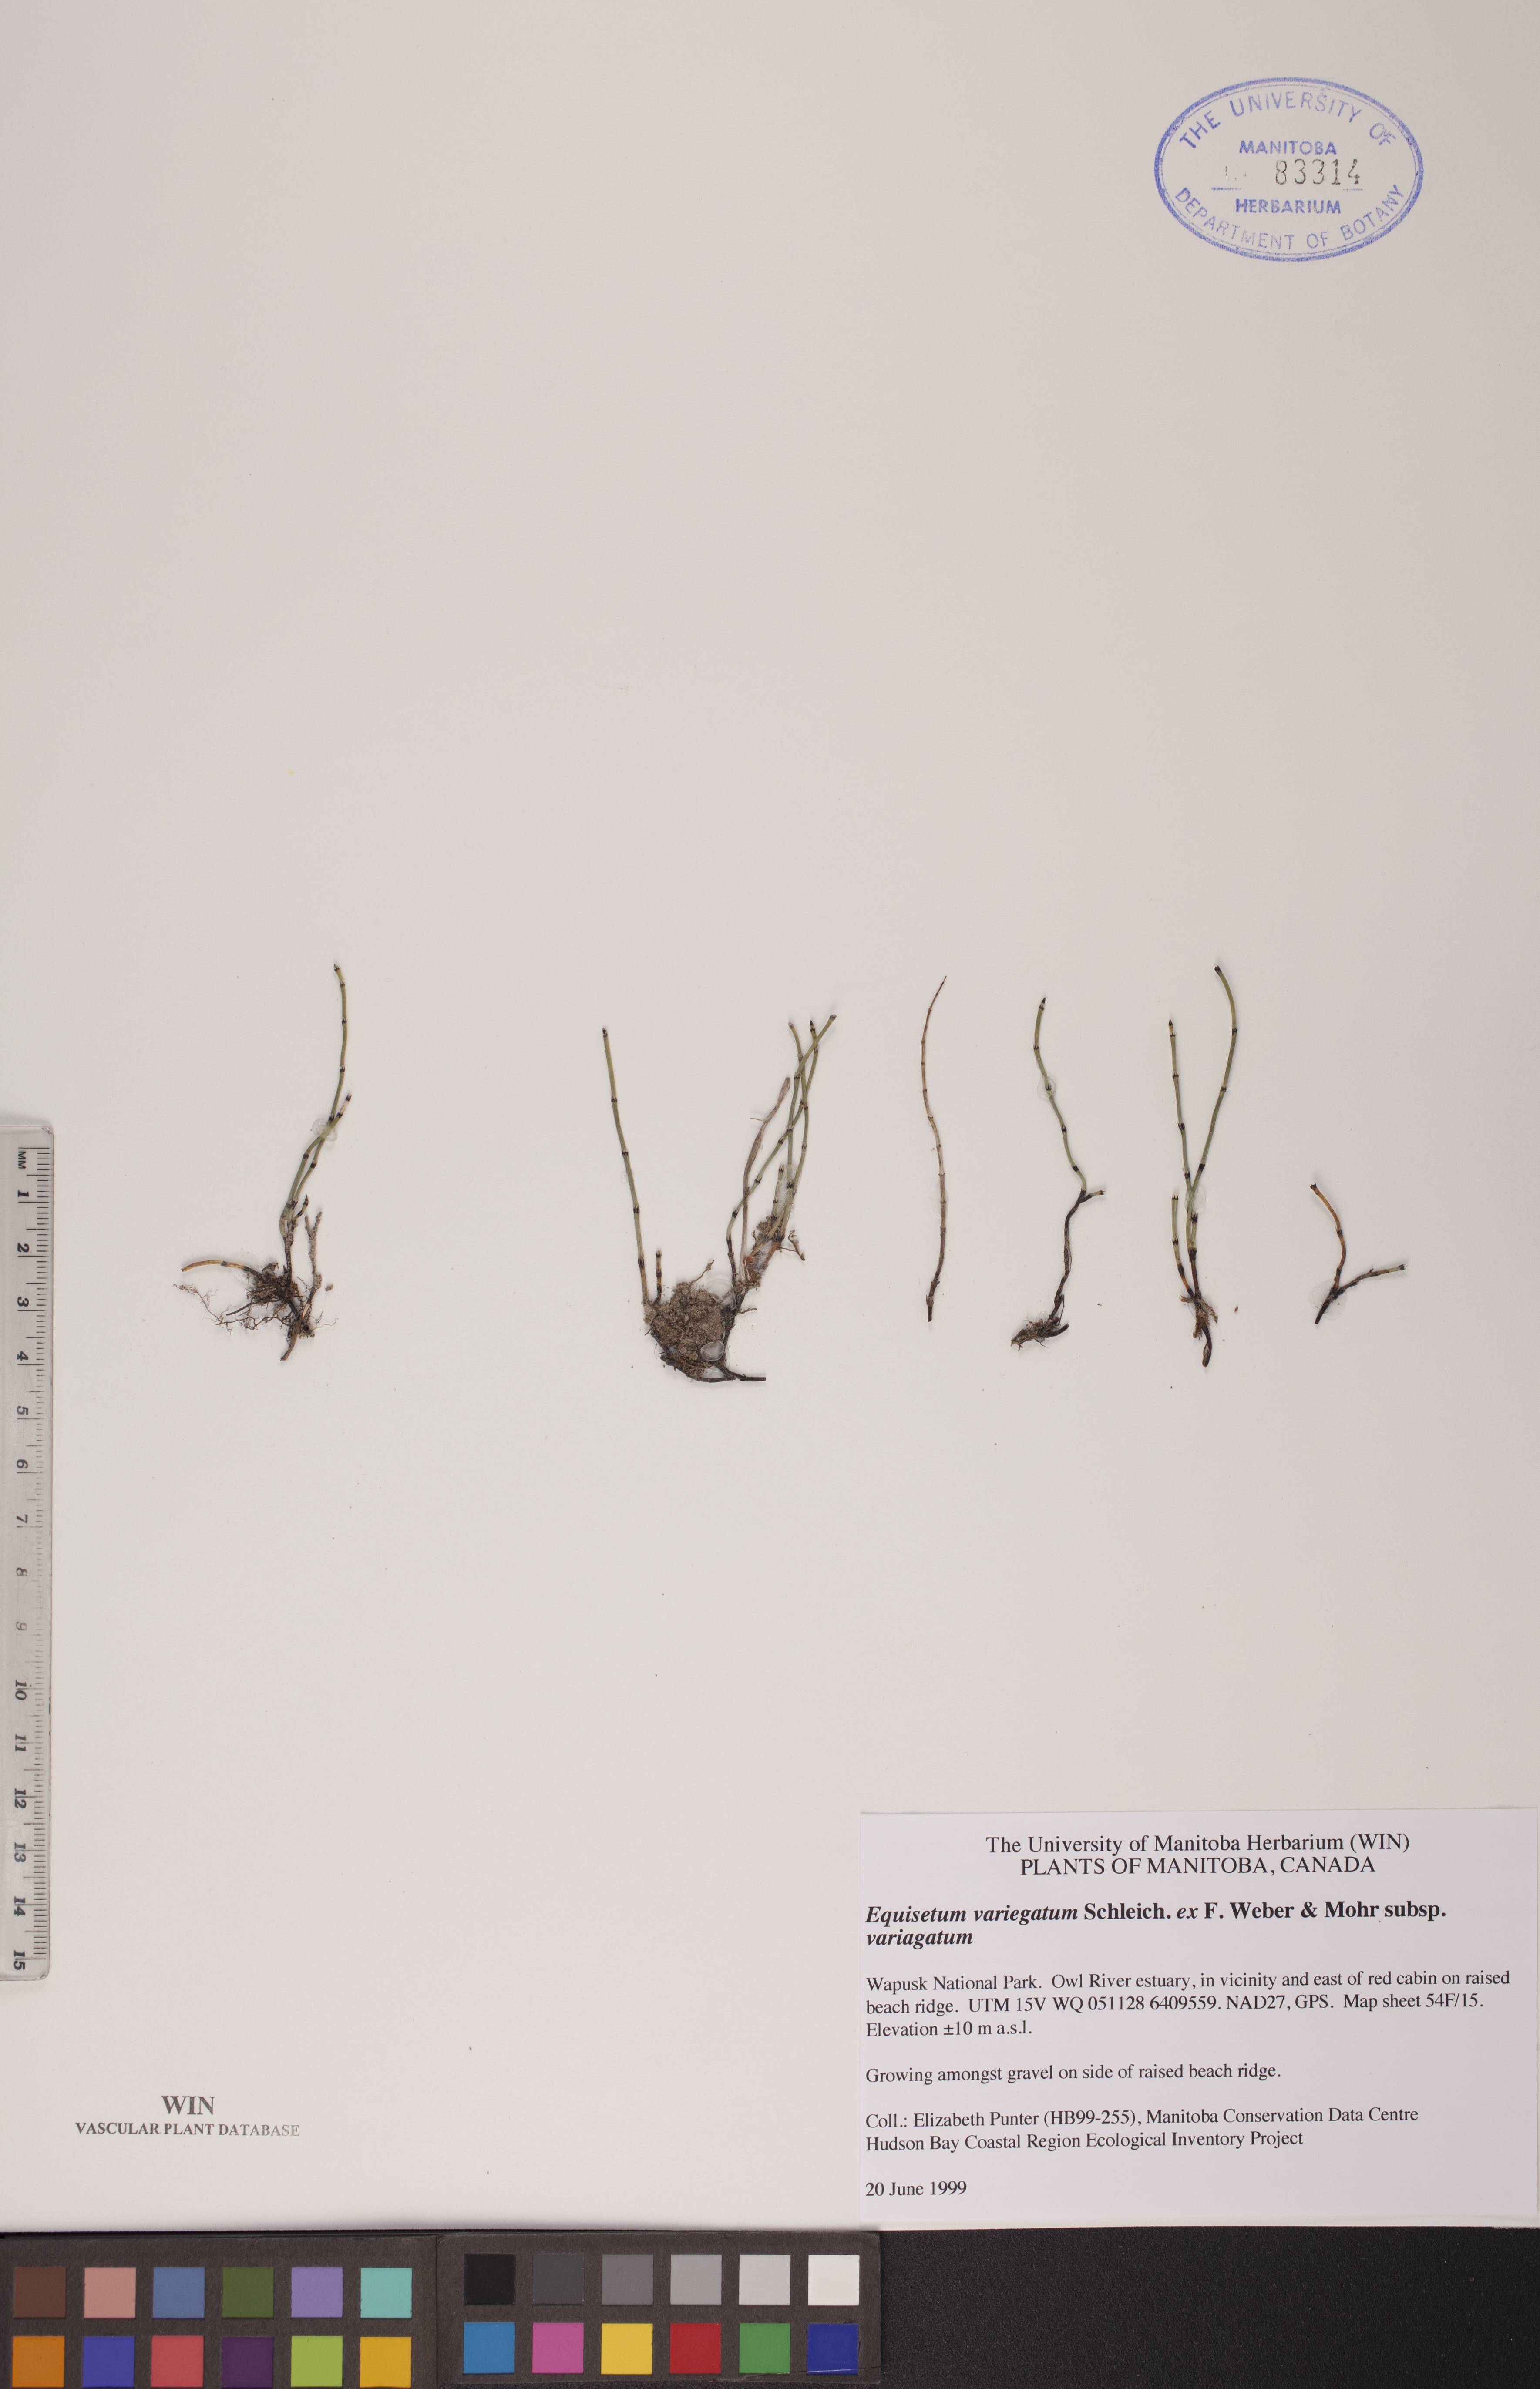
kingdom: Plantae
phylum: Tracheophyta
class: Polypodiopsida
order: Equisetales
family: Equisetaceae
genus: Equisetum
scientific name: Equisetum variegatum
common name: Variegated horsetail
